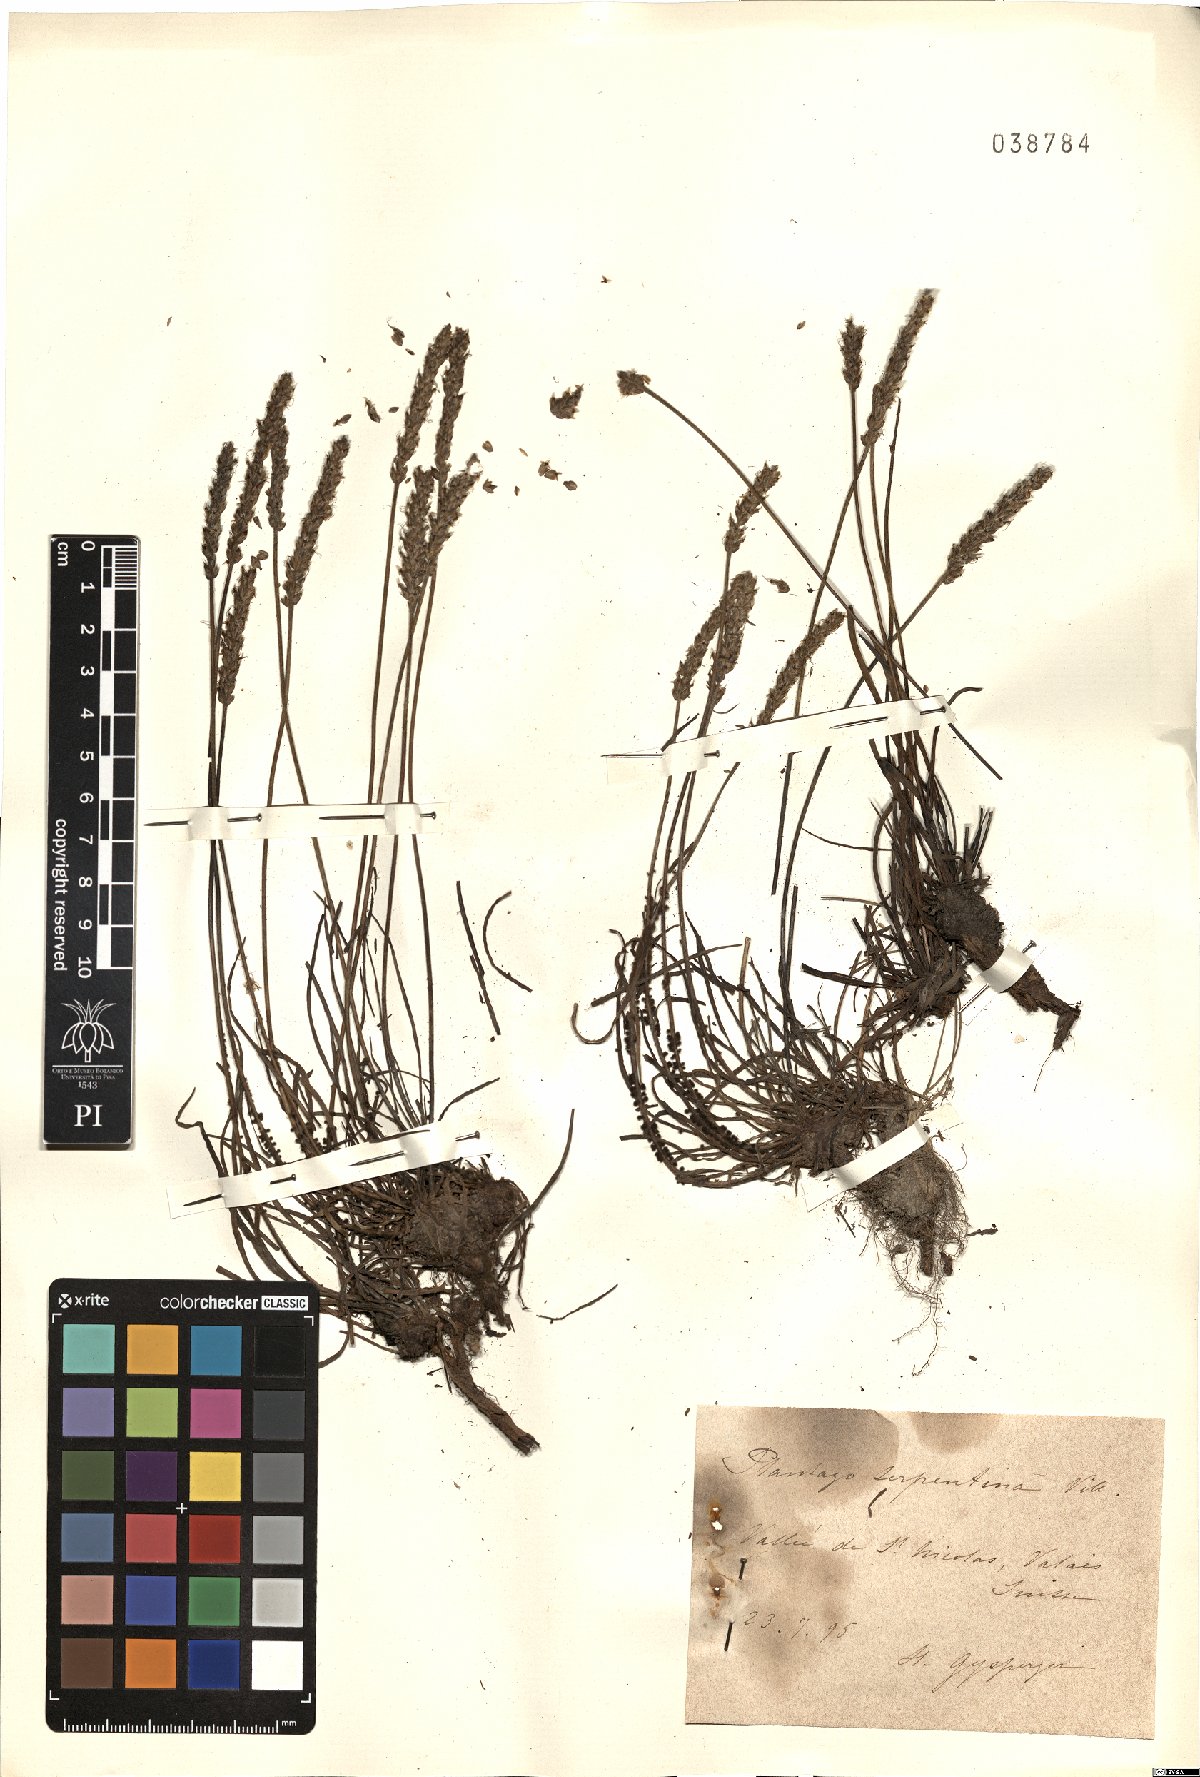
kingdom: Plantae
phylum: Tracheophyta
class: Magnoliopsida
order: Lamiales
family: Plantaginaceae
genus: Plantago
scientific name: Plantago strictissima
